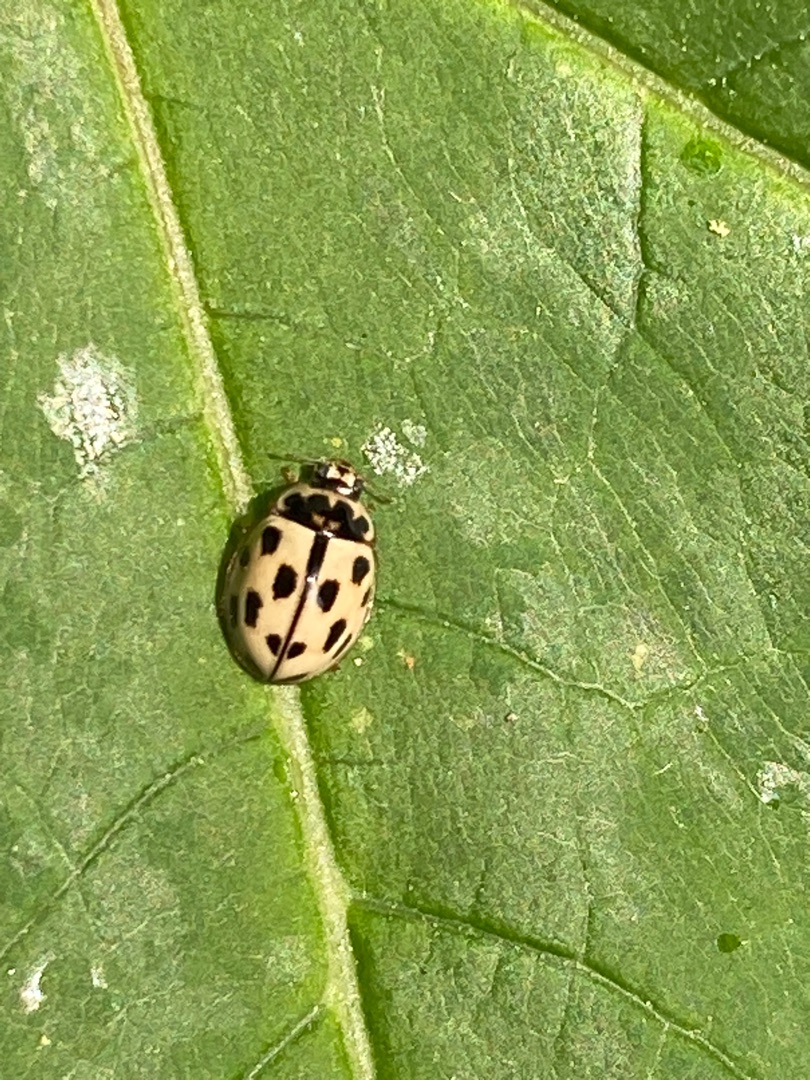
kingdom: Animalia
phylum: Arthropoda
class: Insecta
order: Coleoptera
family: Coccinellidae
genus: Propylaea
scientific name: Propylaea quatuordecimpunctata
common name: Skakbræt
